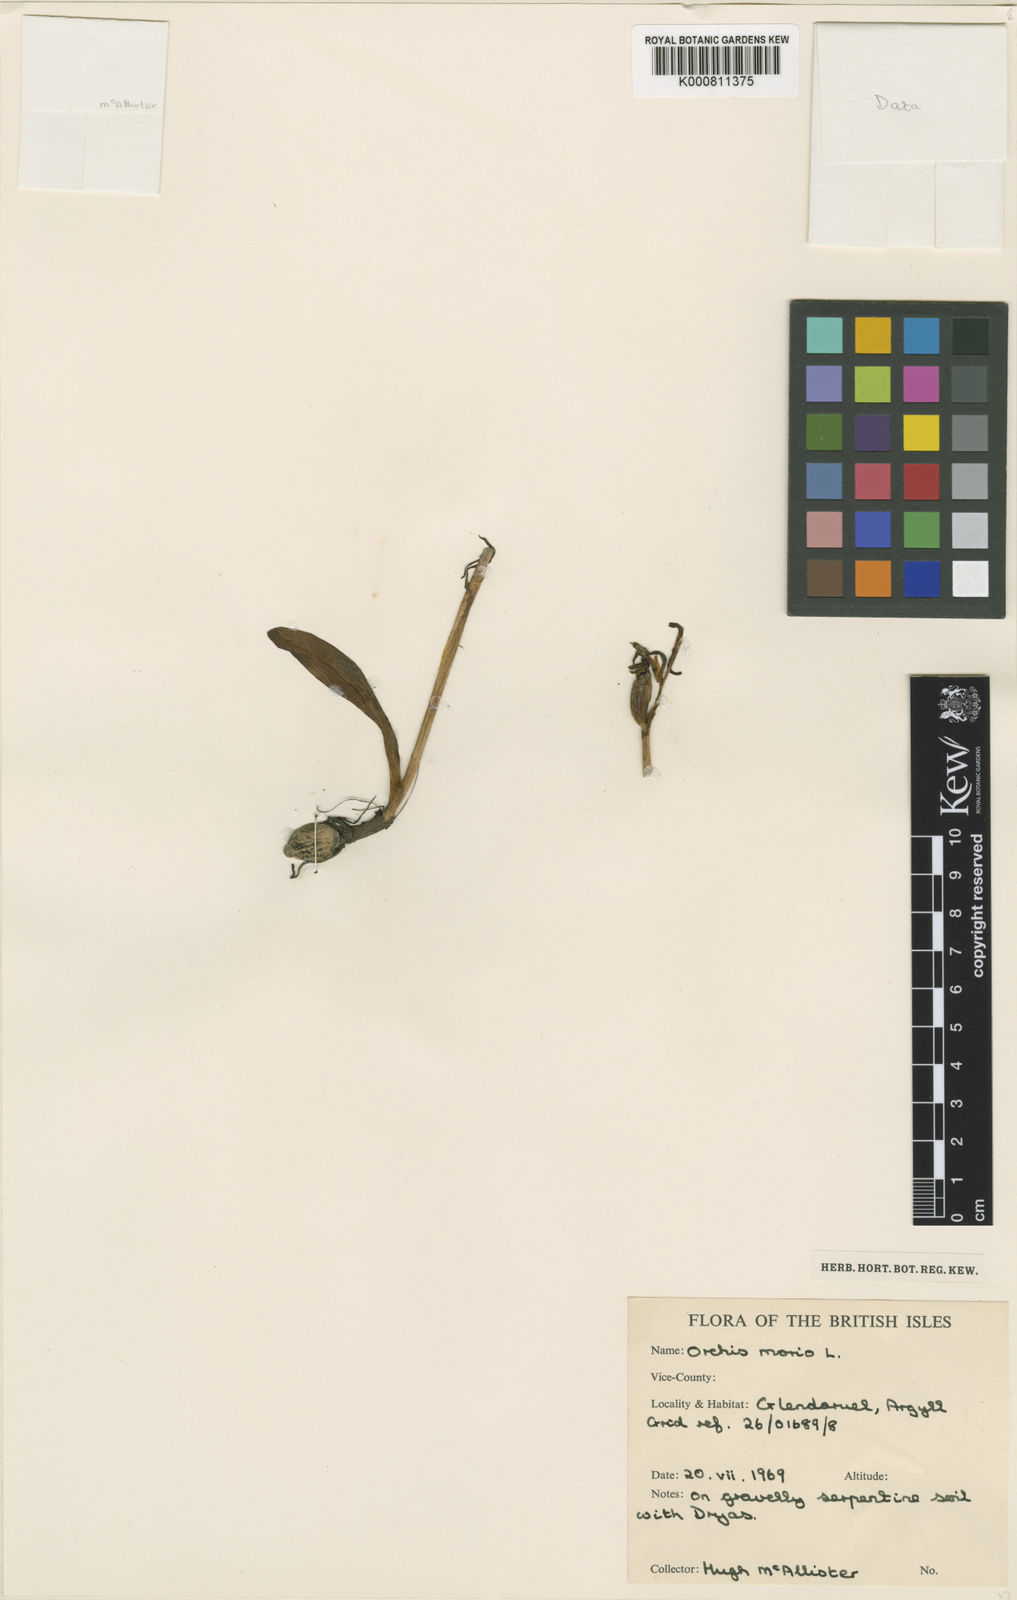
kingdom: Plantae
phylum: Tracheophyta
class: Liliopsida
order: Asparagales
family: Orchidaceae
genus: Anacamptis
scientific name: Anacamptis morio
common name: Green-winged orchid
